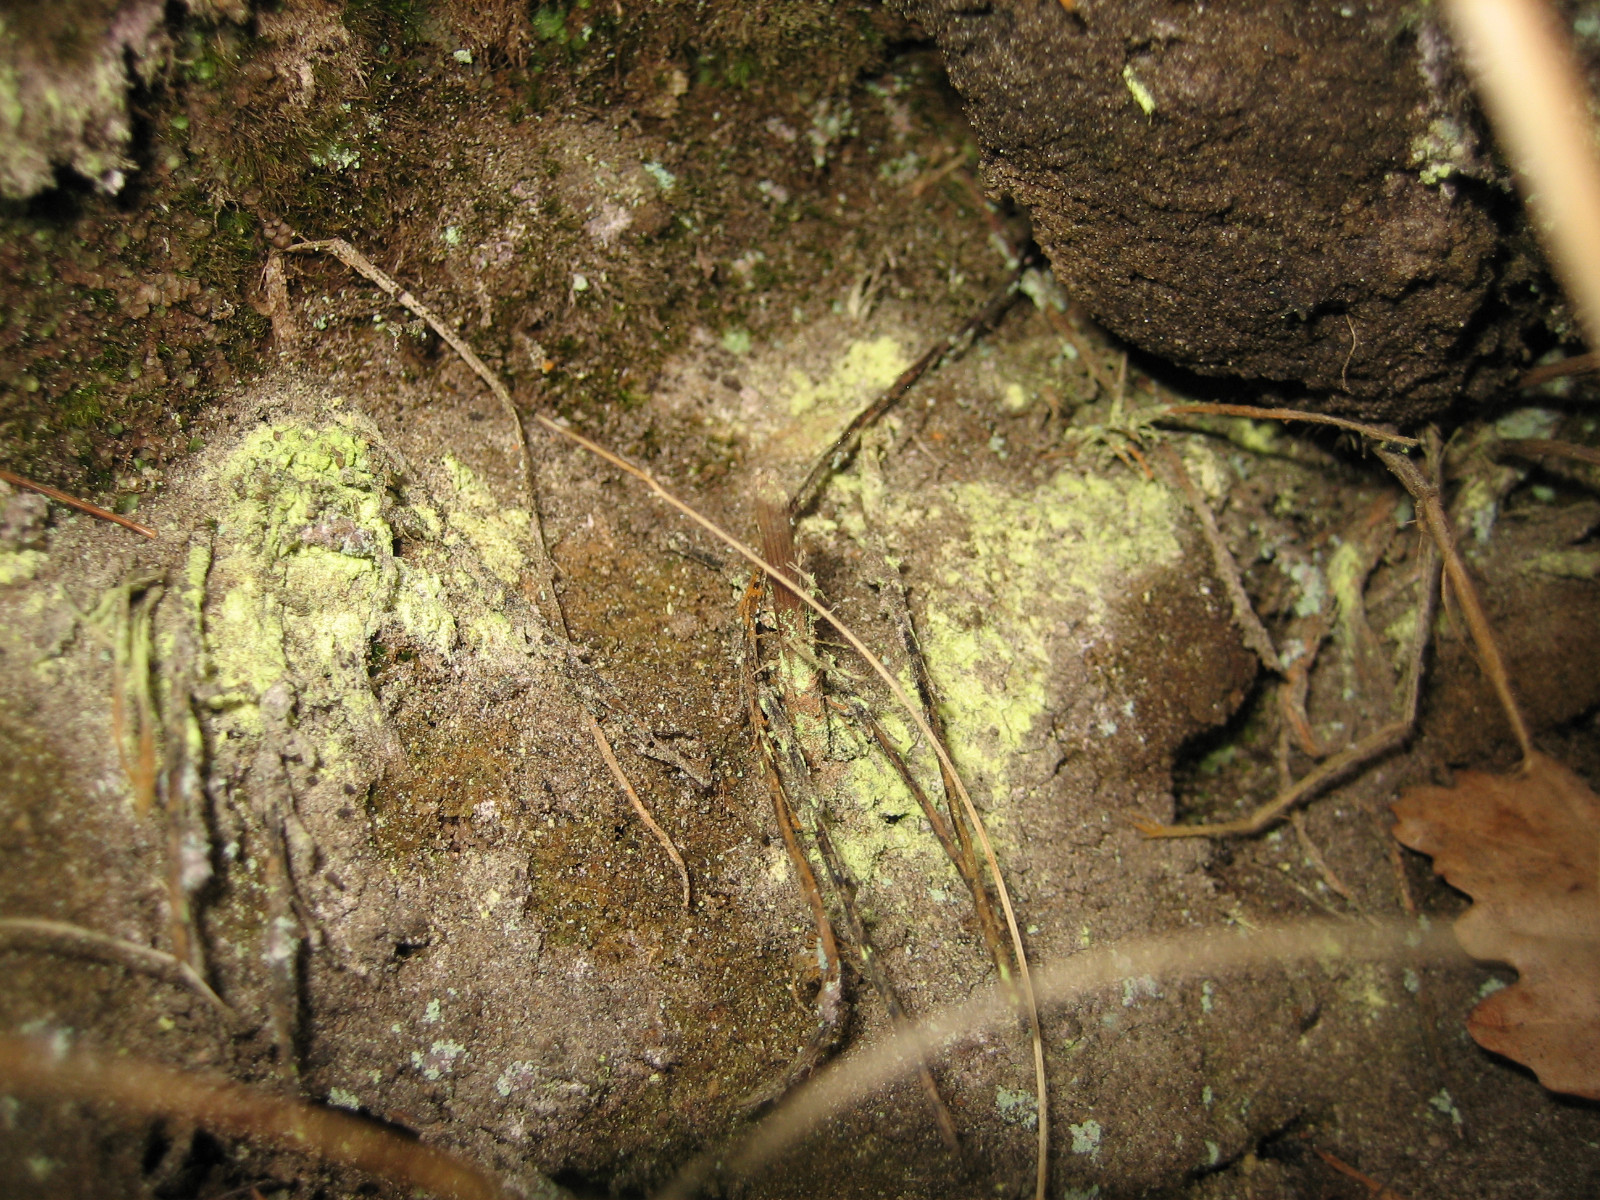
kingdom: Fungi
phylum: Ascomycota
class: Lecanoromycetes
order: Lecanorales
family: Psilolechiaceae
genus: Psilolechia
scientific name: Psilolechia lucida
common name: gul skyggelav
